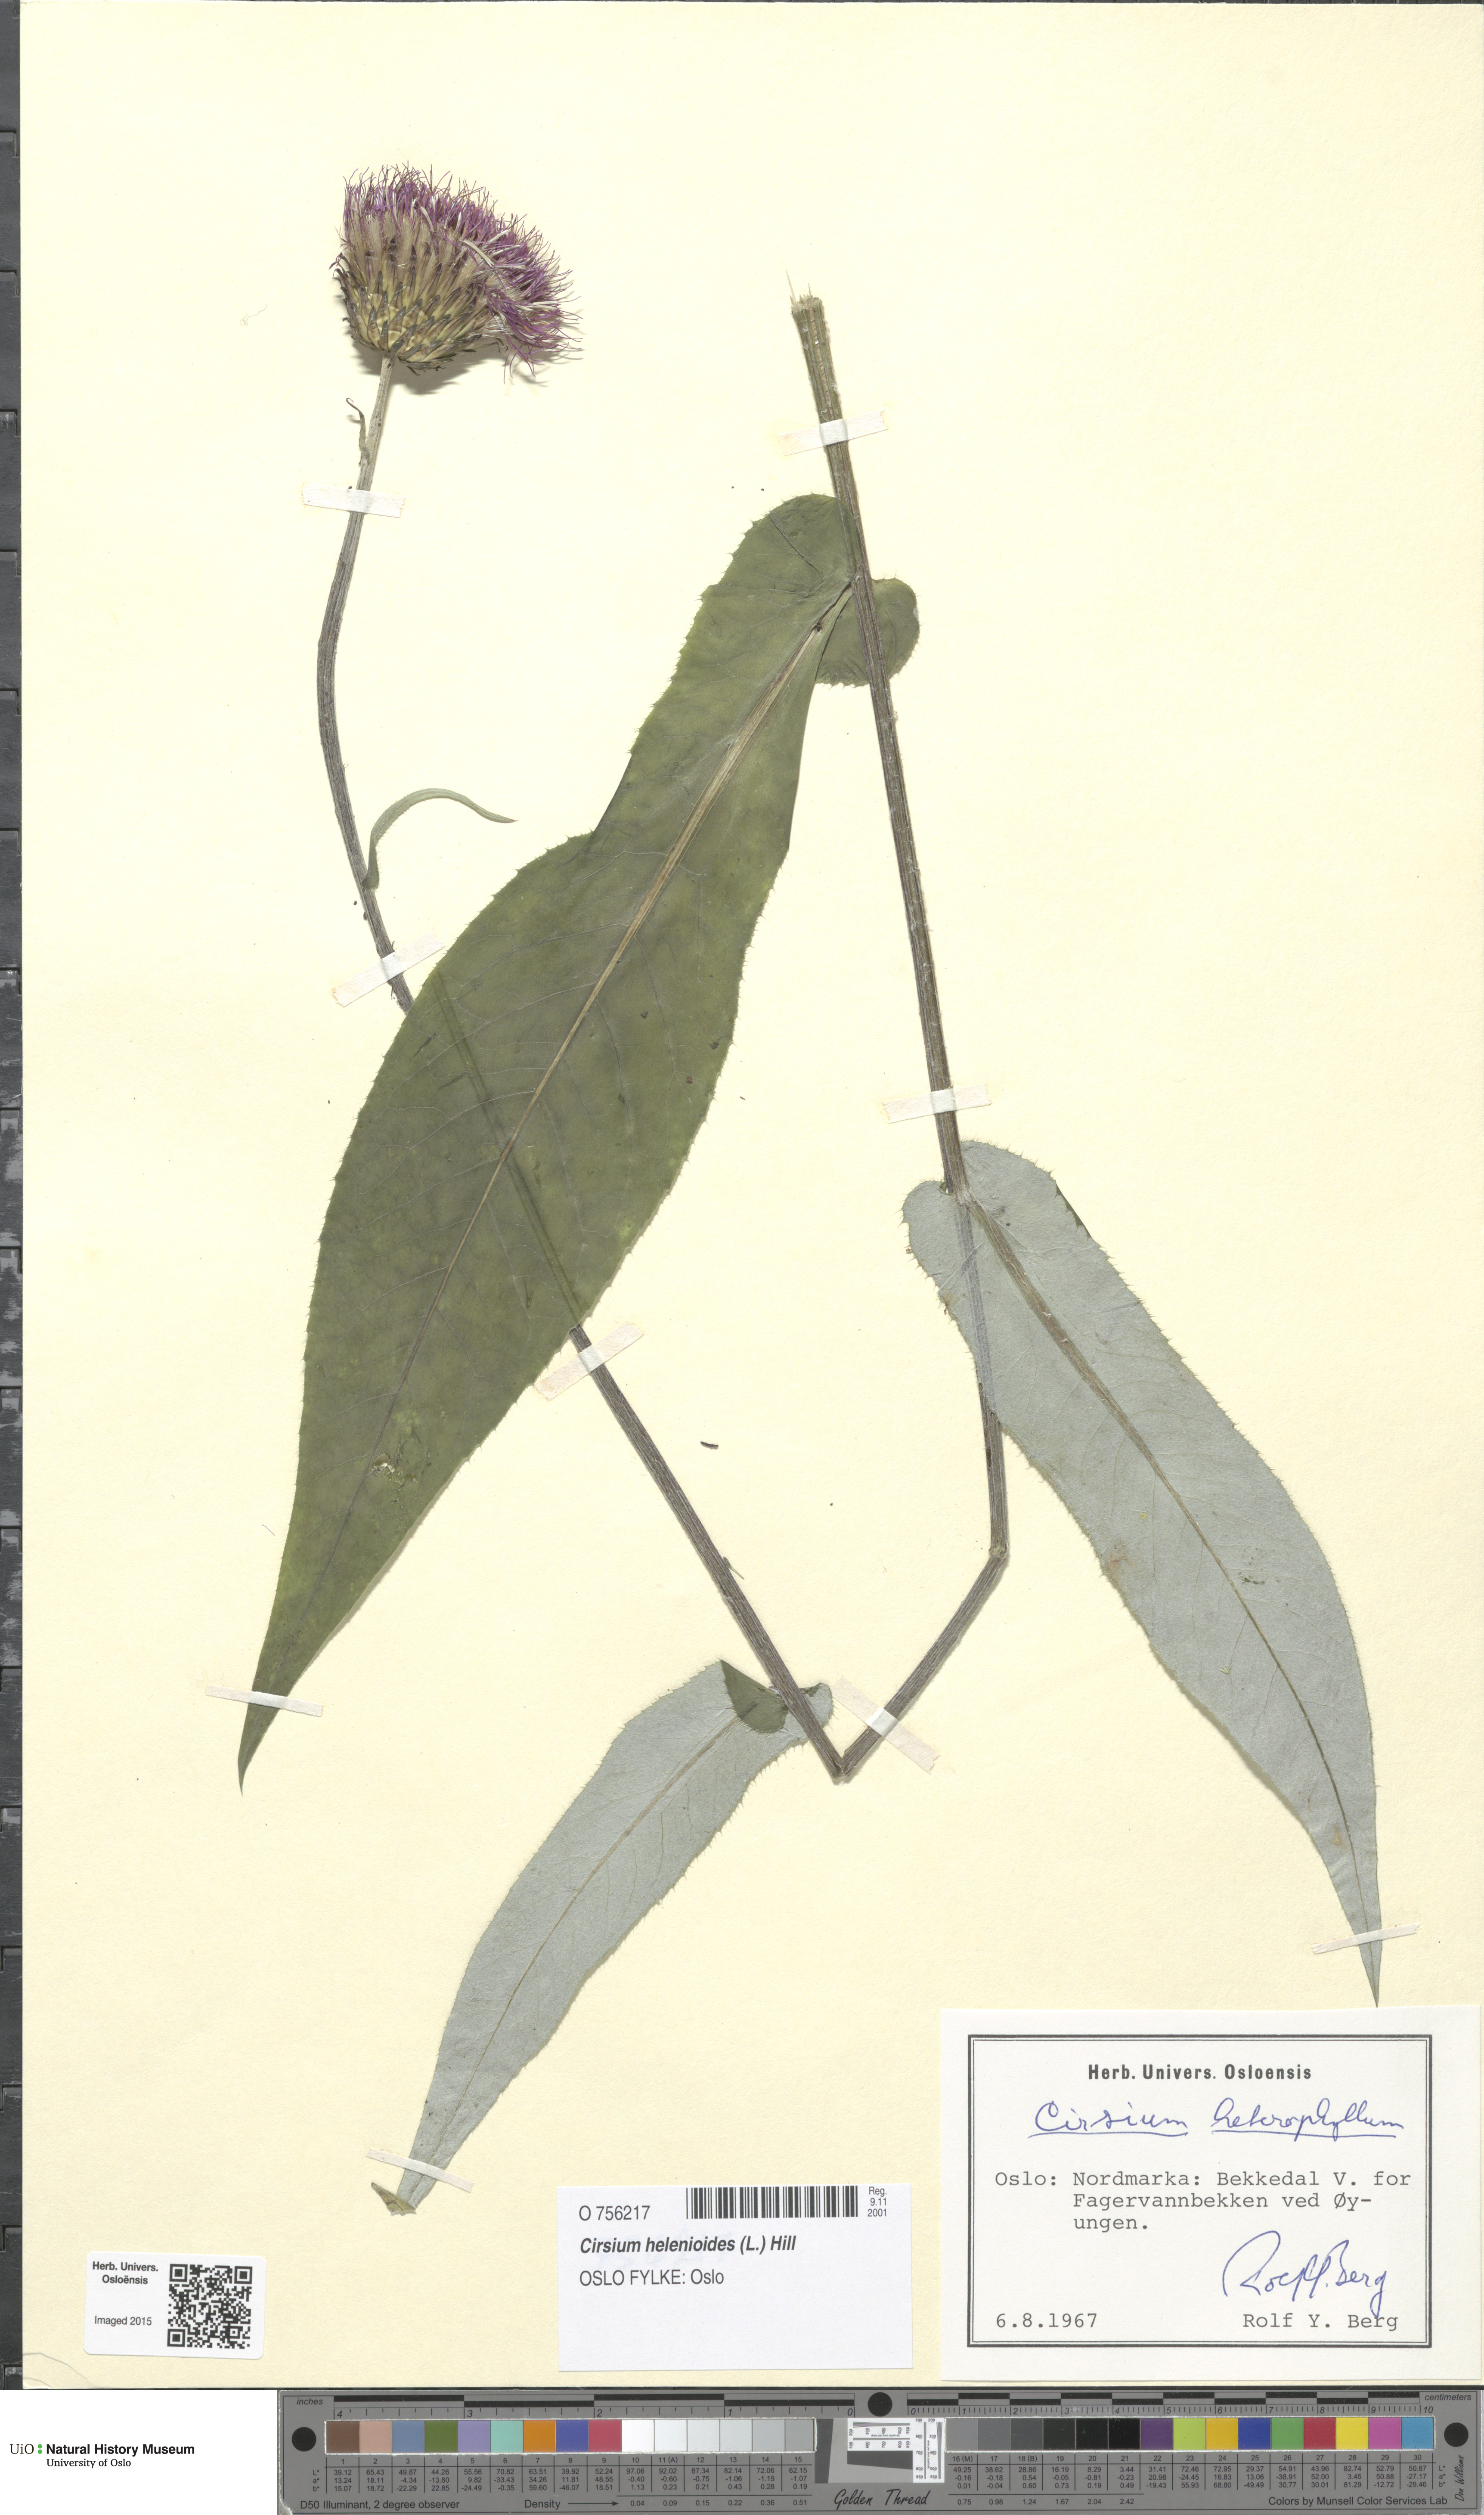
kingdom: Plantae
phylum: Tracheophyta
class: Magnoliopsida
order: Asterales
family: Asteraceae
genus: Cirsium
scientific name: Cirsium heterophyllum
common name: Melancholy thistle
